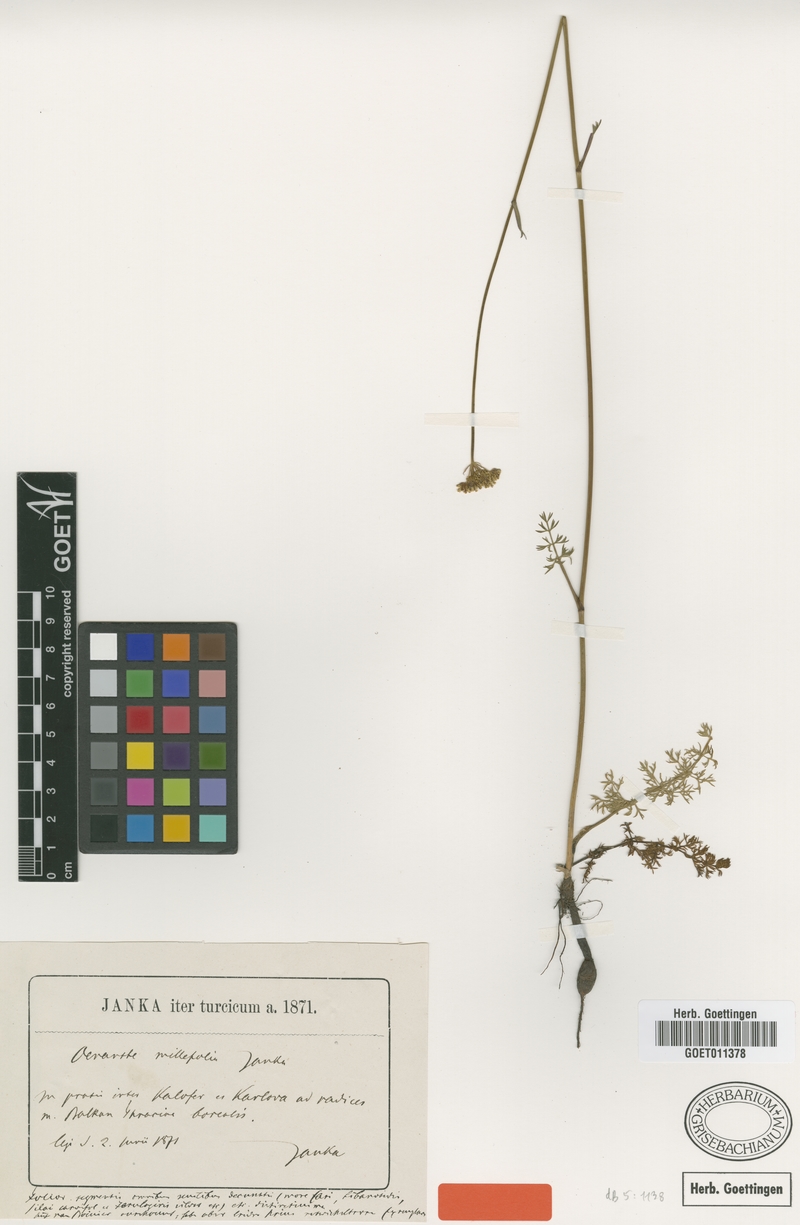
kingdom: Plantae
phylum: Tracheophyta
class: Magnoliopsida
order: Apiales
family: Apiaceae
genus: Oenanthe
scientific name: Oenanthe millefolia
